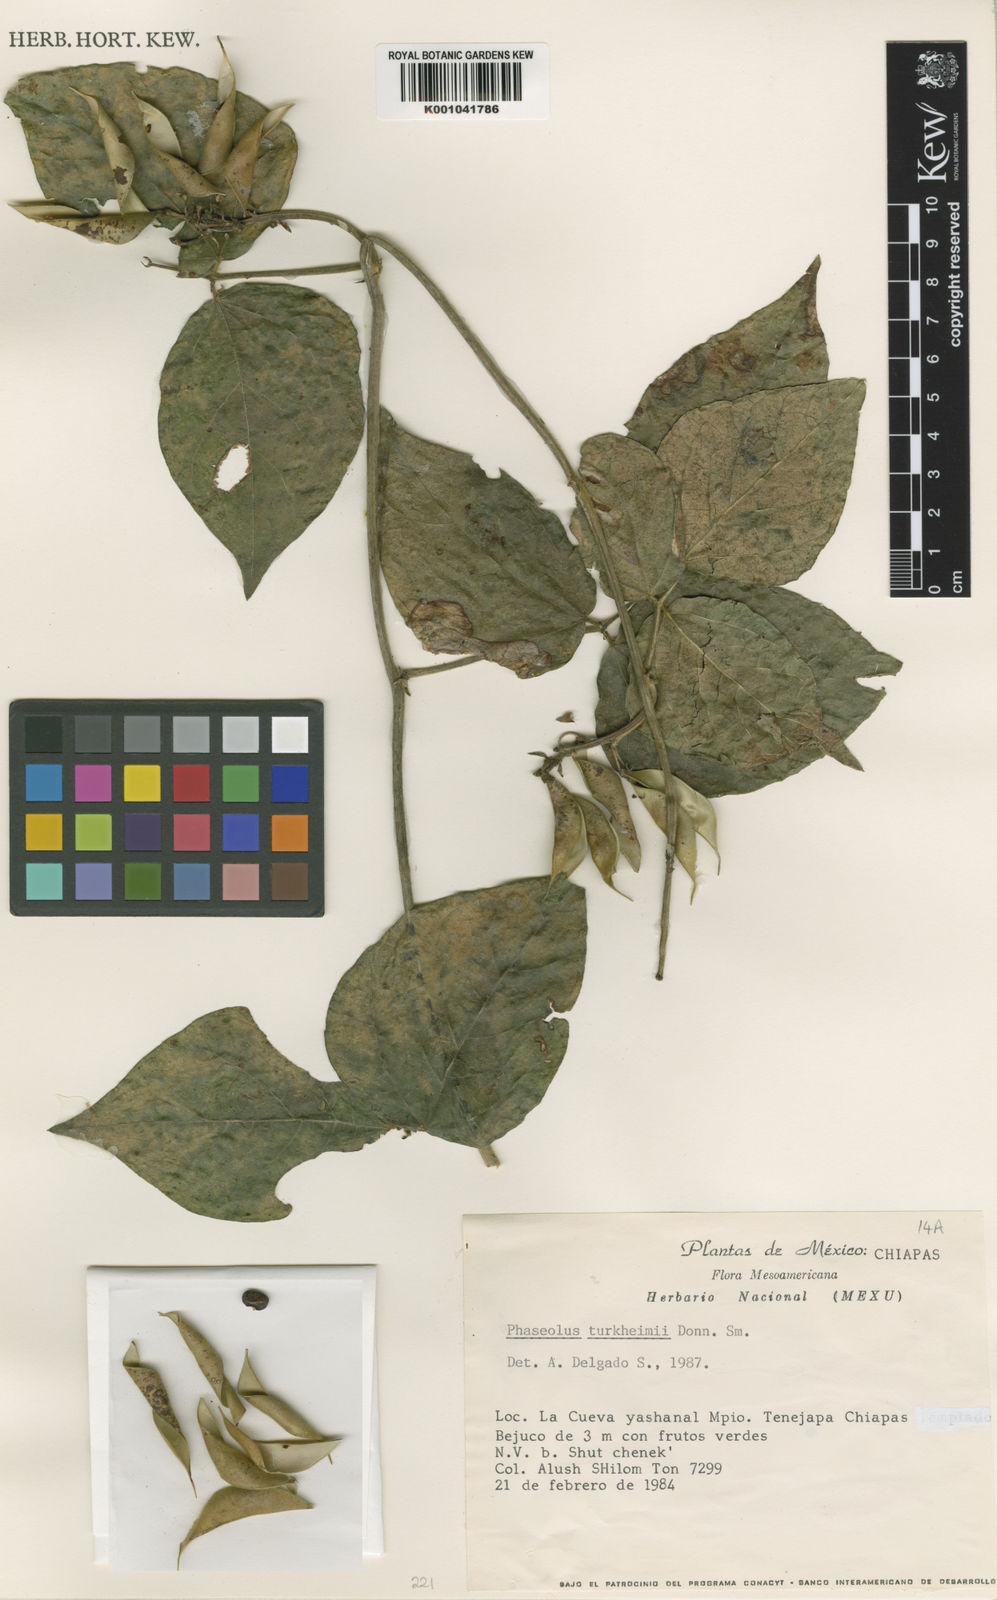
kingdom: Plantae
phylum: Tracheophyta
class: Magnoliopsida
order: Fabales
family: Fabaceae
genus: Phaseolus
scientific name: Phaseolus tuerckheimii
